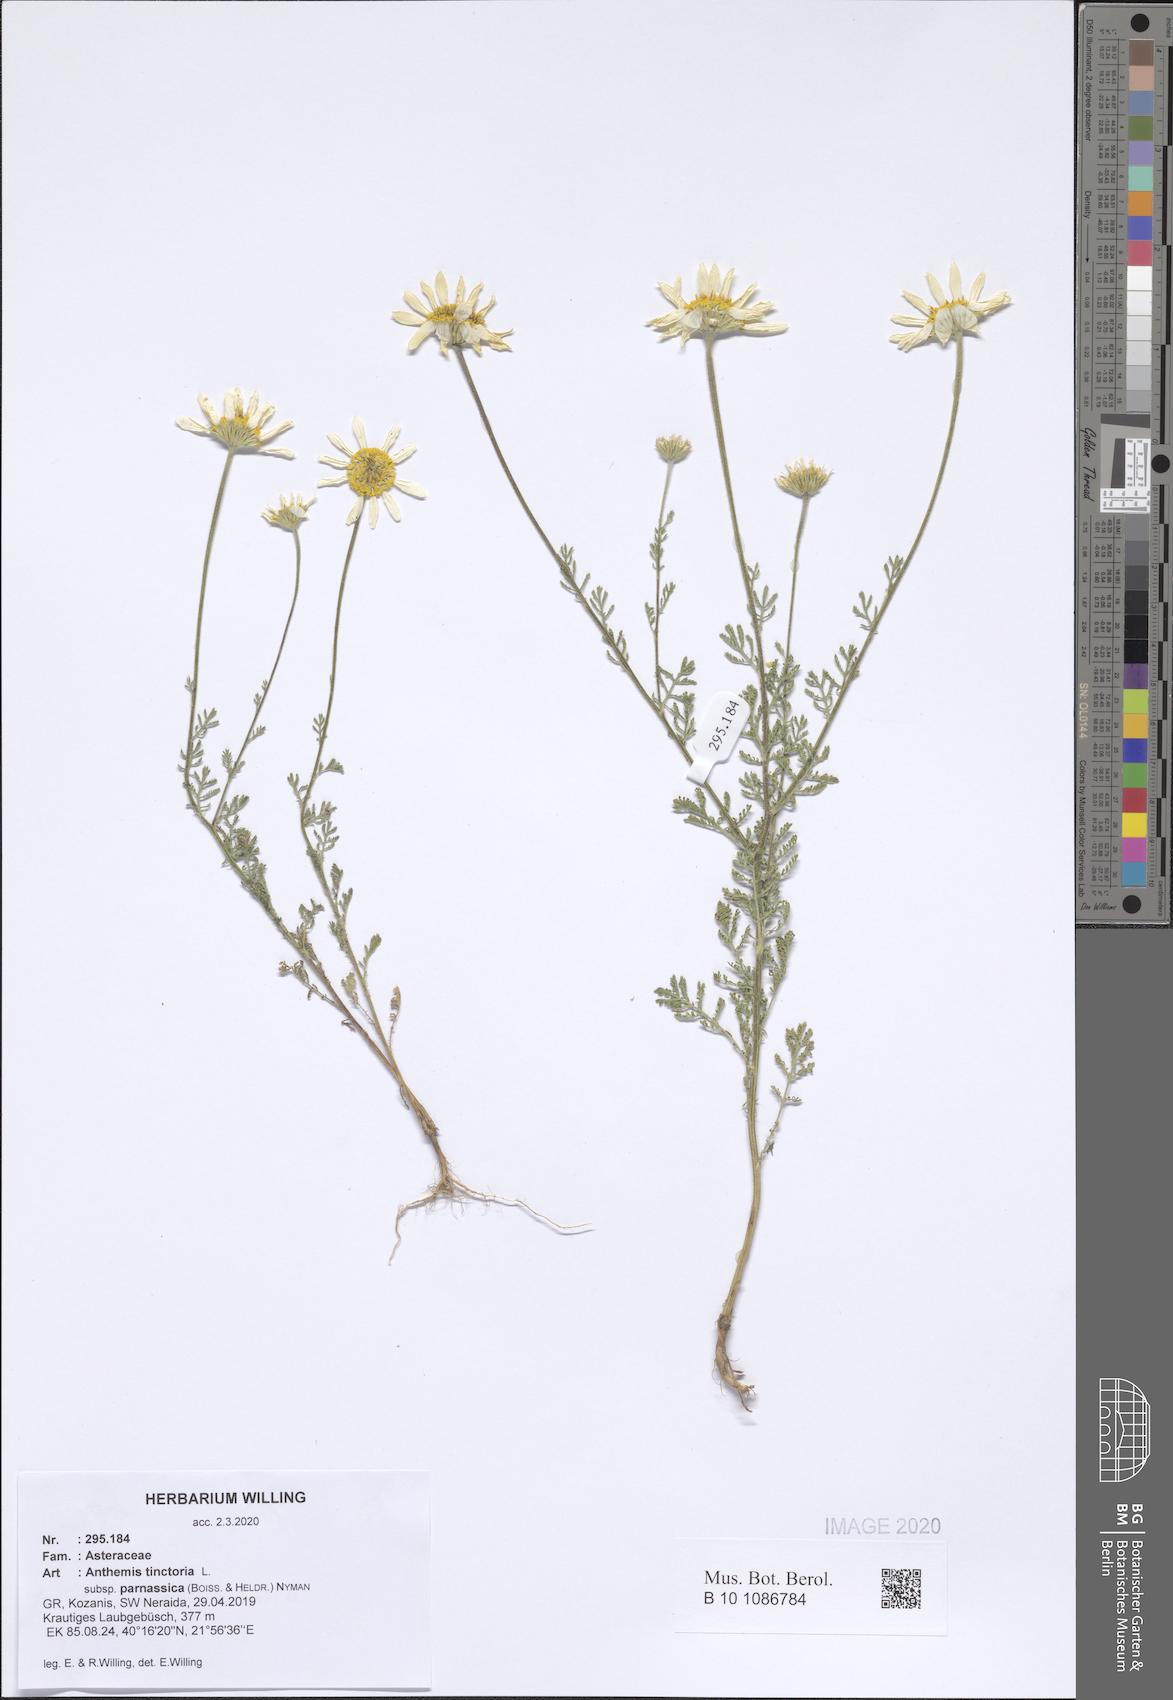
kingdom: Plantae
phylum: Tracheophyta
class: Magnoliopsida
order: Asterales
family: Asteraceae
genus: Cota
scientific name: Cota tinctoria
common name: Golden chamomile
